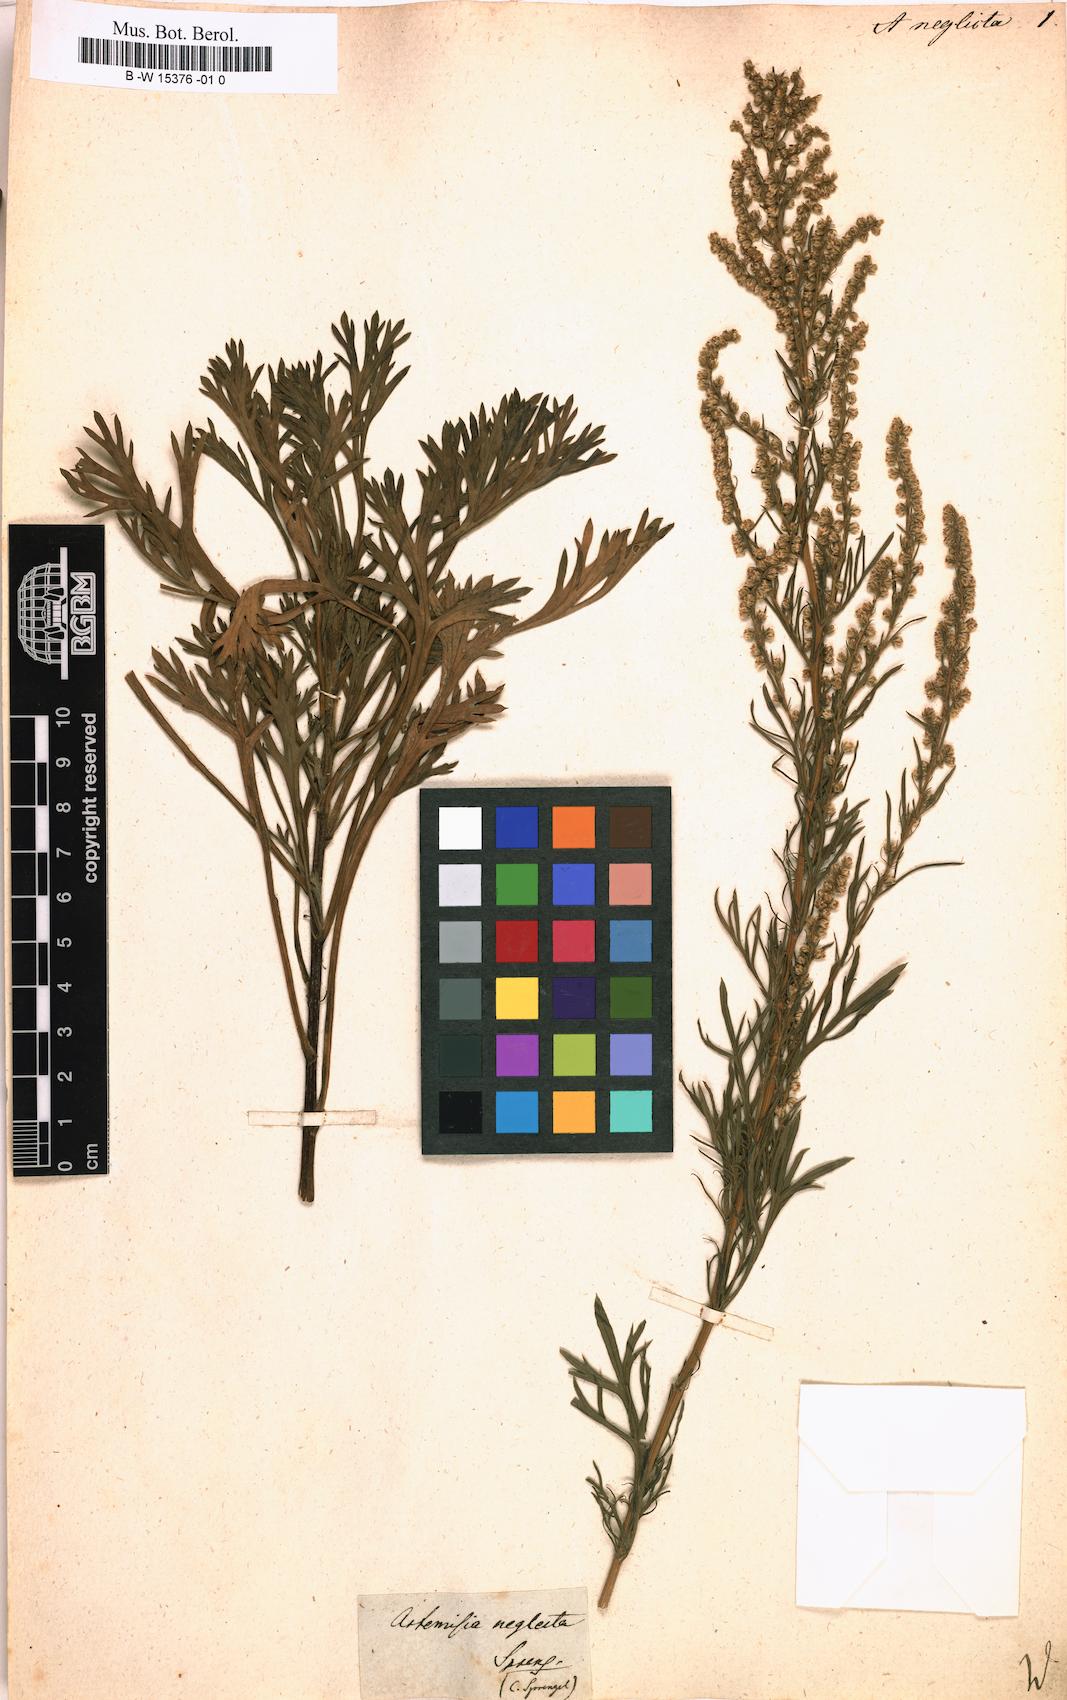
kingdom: Plantae
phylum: Tracheophyta
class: Magnoliopsida
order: Asterales
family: Asteraceae
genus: Artemisia
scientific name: Artemisia desertorum
